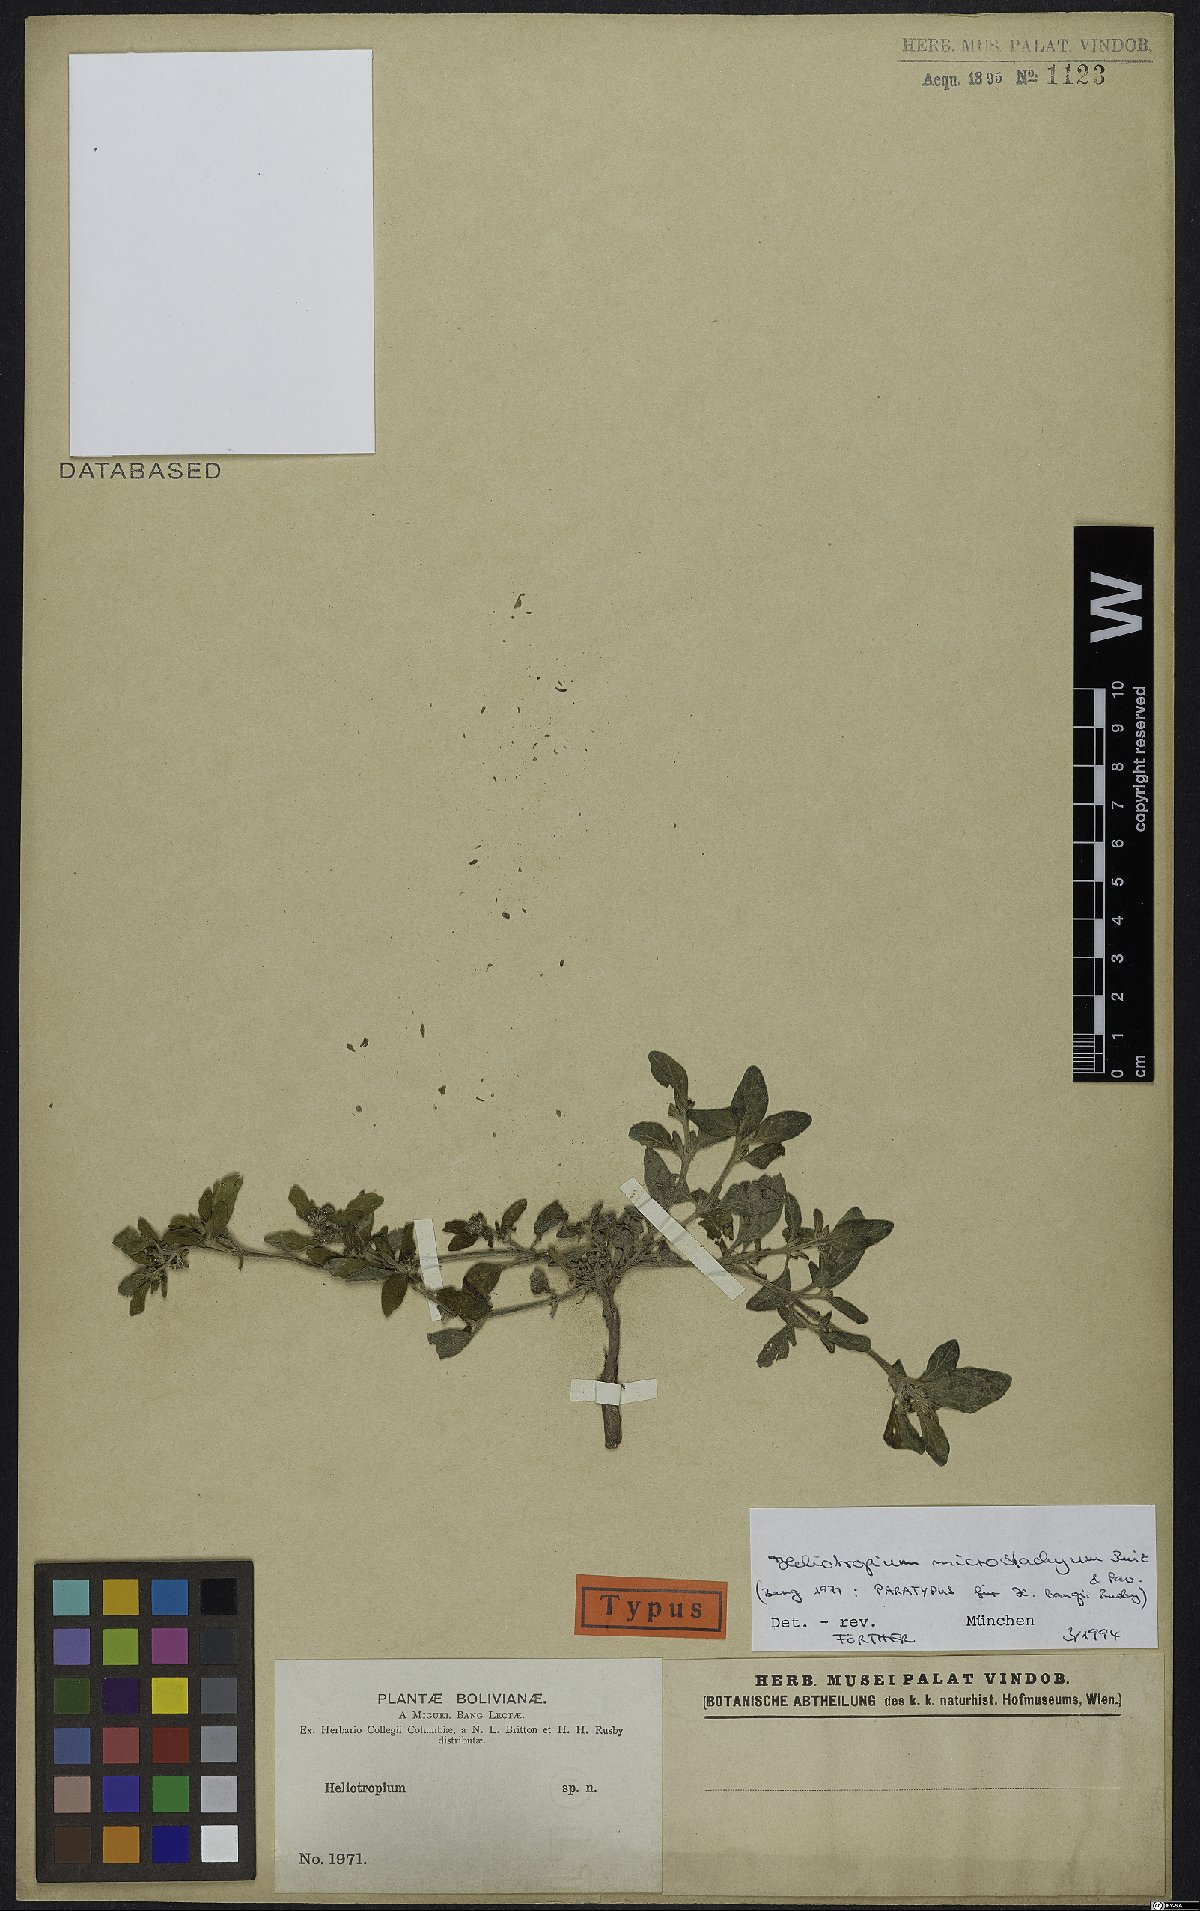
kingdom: Plantae
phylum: Tracheophyta
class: Magnoliopsida
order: Boraginales
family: Heliotropiaceae
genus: Heliotropium
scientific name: Heliotropium microstachyum
